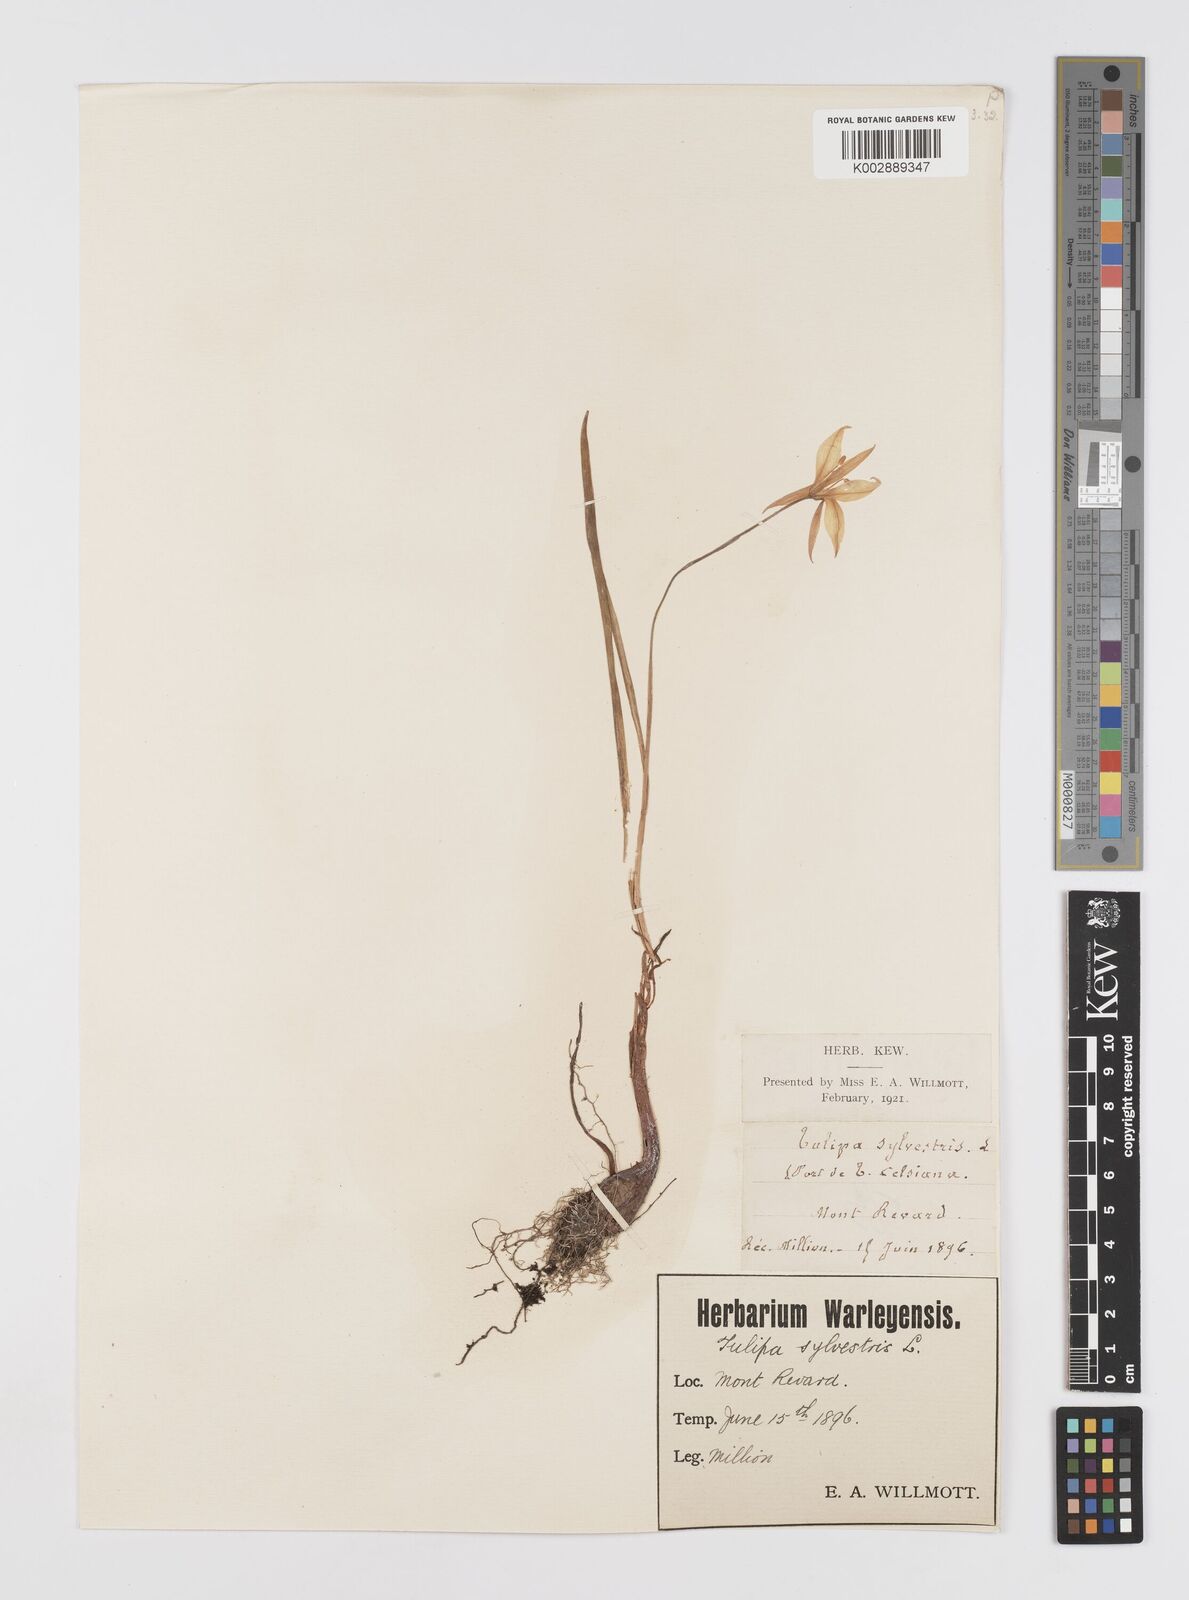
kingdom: Plantae
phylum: Tracheophyta
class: Liliopsida
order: Liliales
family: Liliaceae
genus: Tulipa
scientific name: Tulipa sylvestris
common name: Wild tulip
